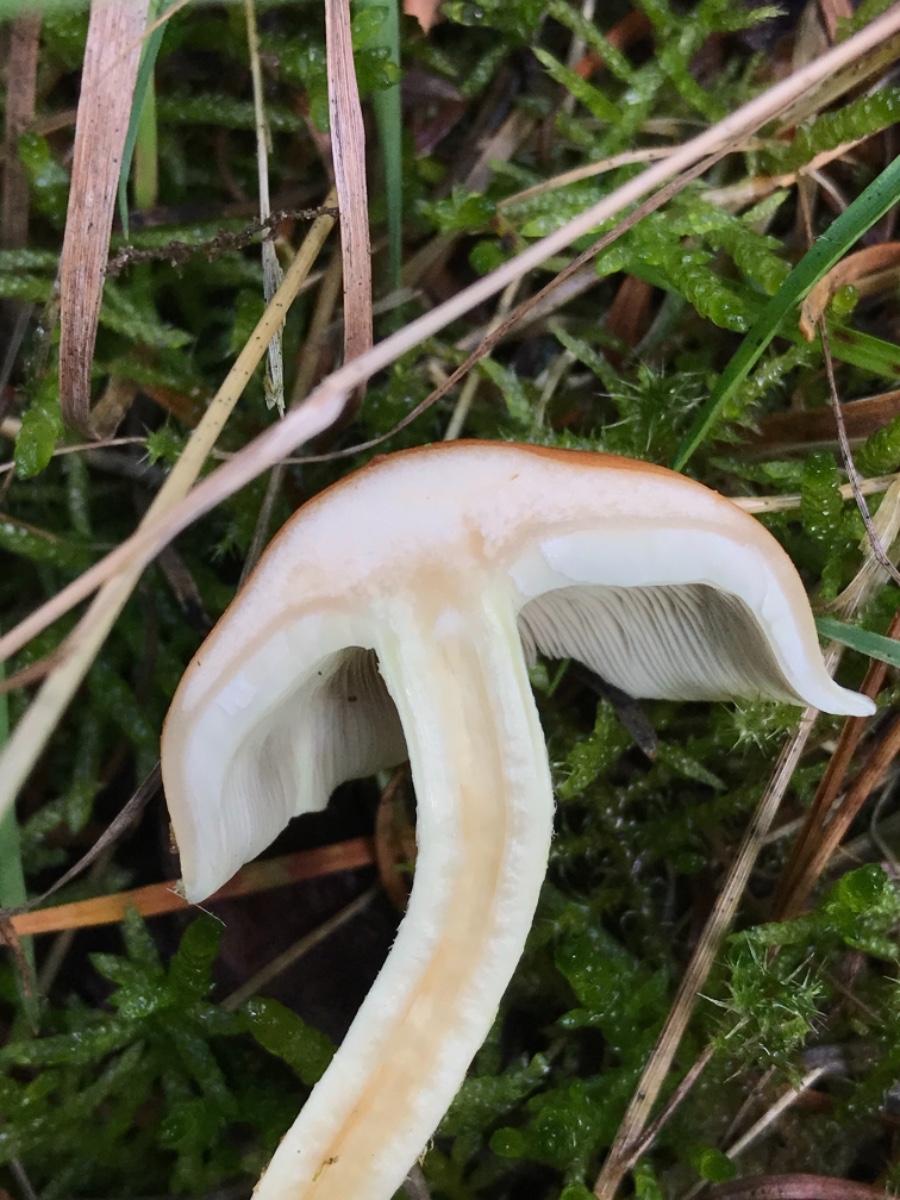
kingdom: Fungi
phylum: Basidiomycota
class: Agaricomycetes
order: Agaricales
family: Strophariaceae
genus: Hypholoma
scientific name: Hypholoma fasciculare
